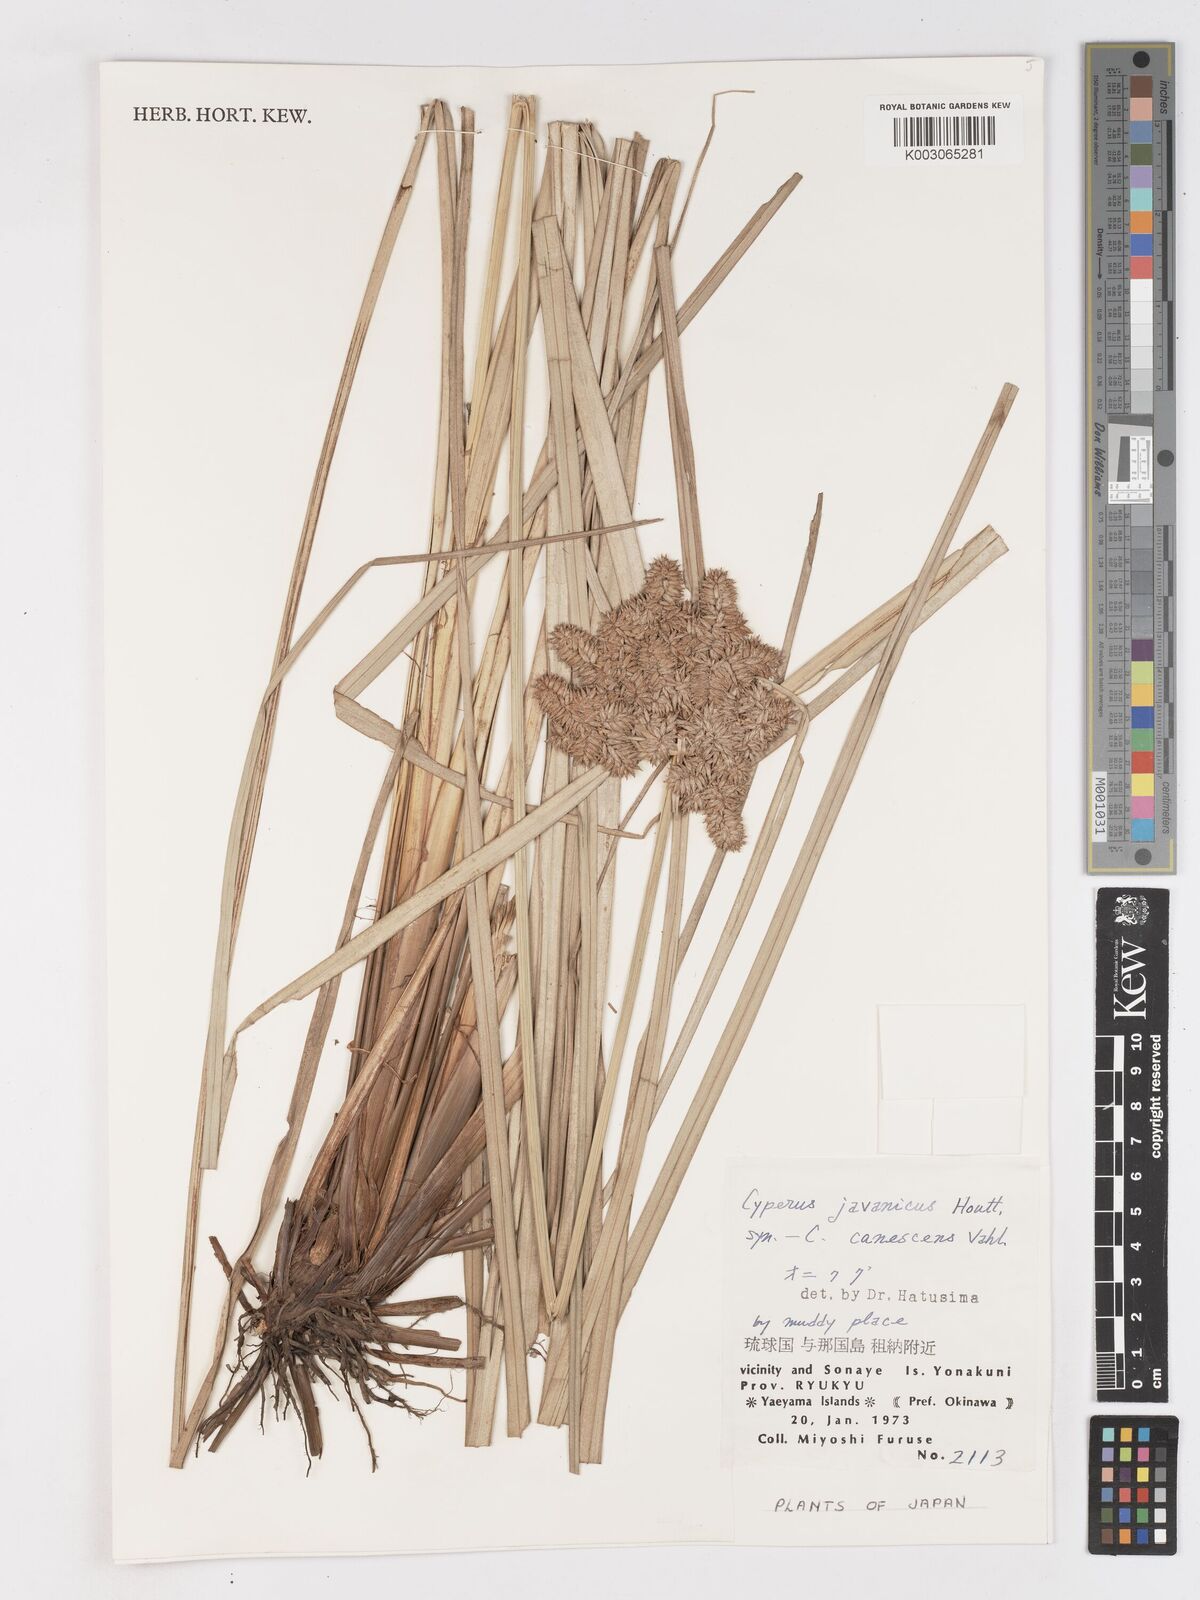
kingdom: Plantae
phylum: Tracheophyta
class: Liliopsida
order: Poales
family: Cyperaceae
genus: Cyperus
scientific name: Cyperus javanicus
